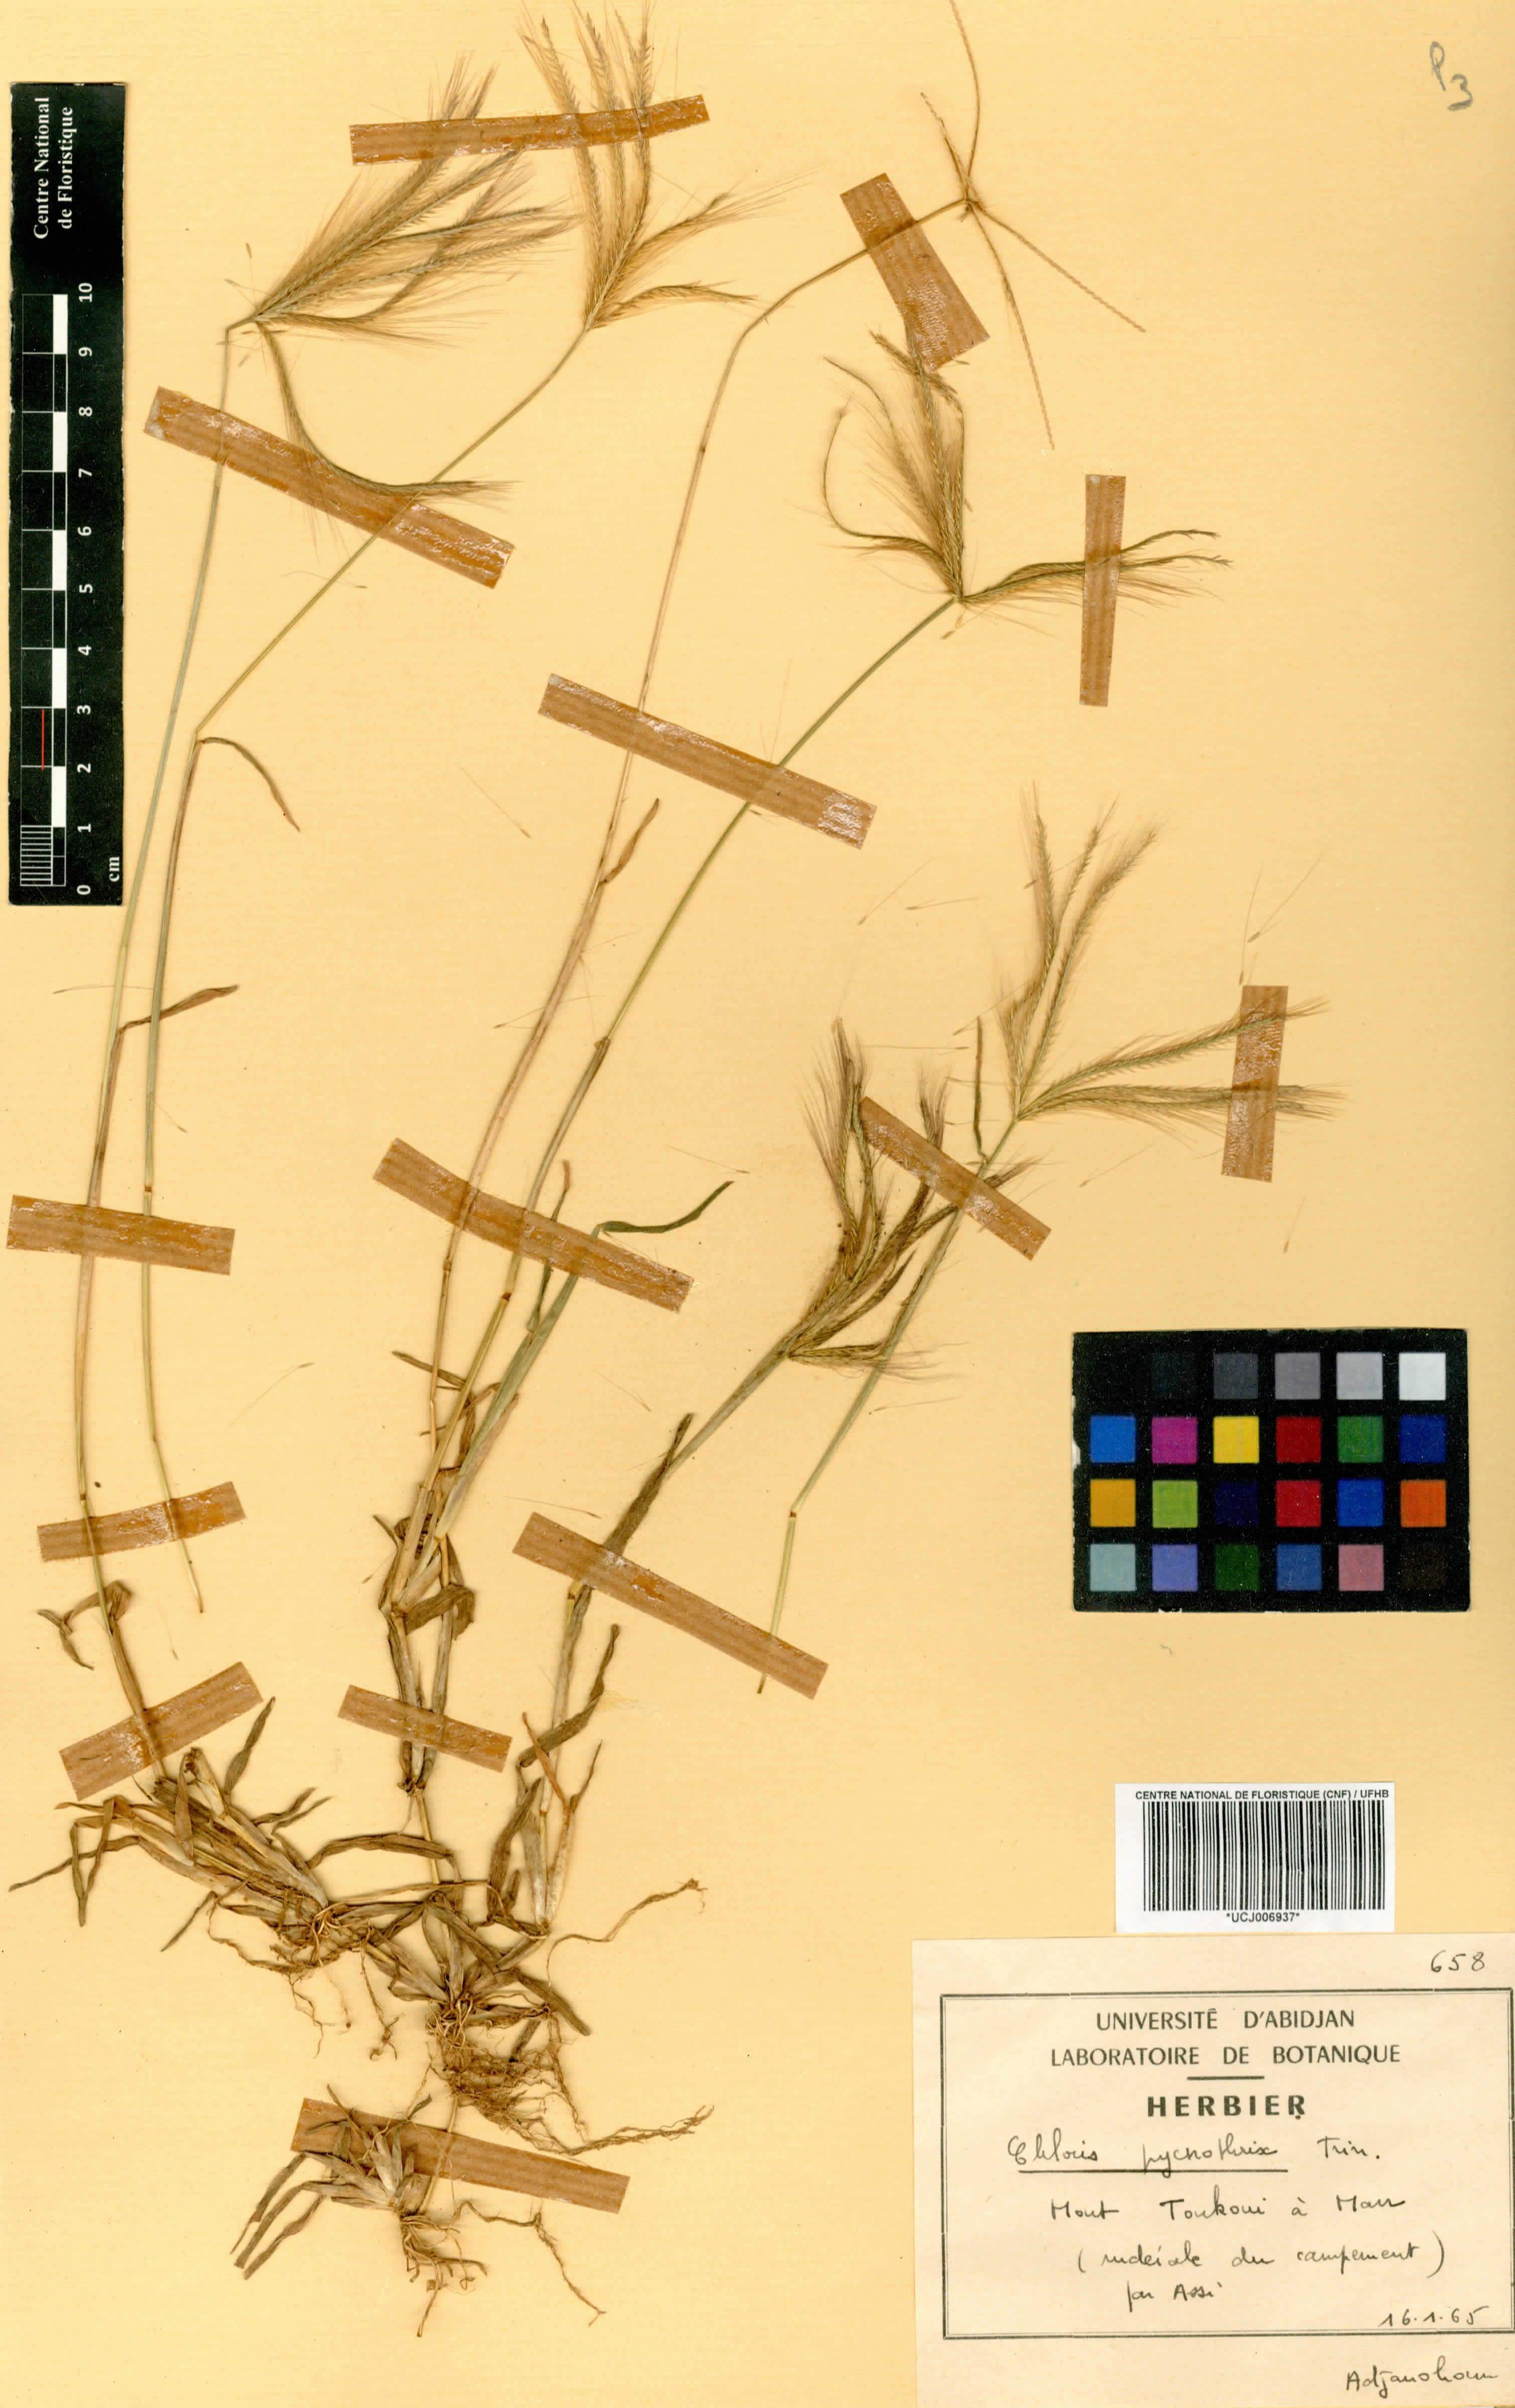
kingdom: Plantae
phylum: Tracheophyta
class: Liliopsida
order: Poales
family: Poaceae
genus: Chloris
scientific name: Chloris pycnothrix
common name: Spiderweb chloris
